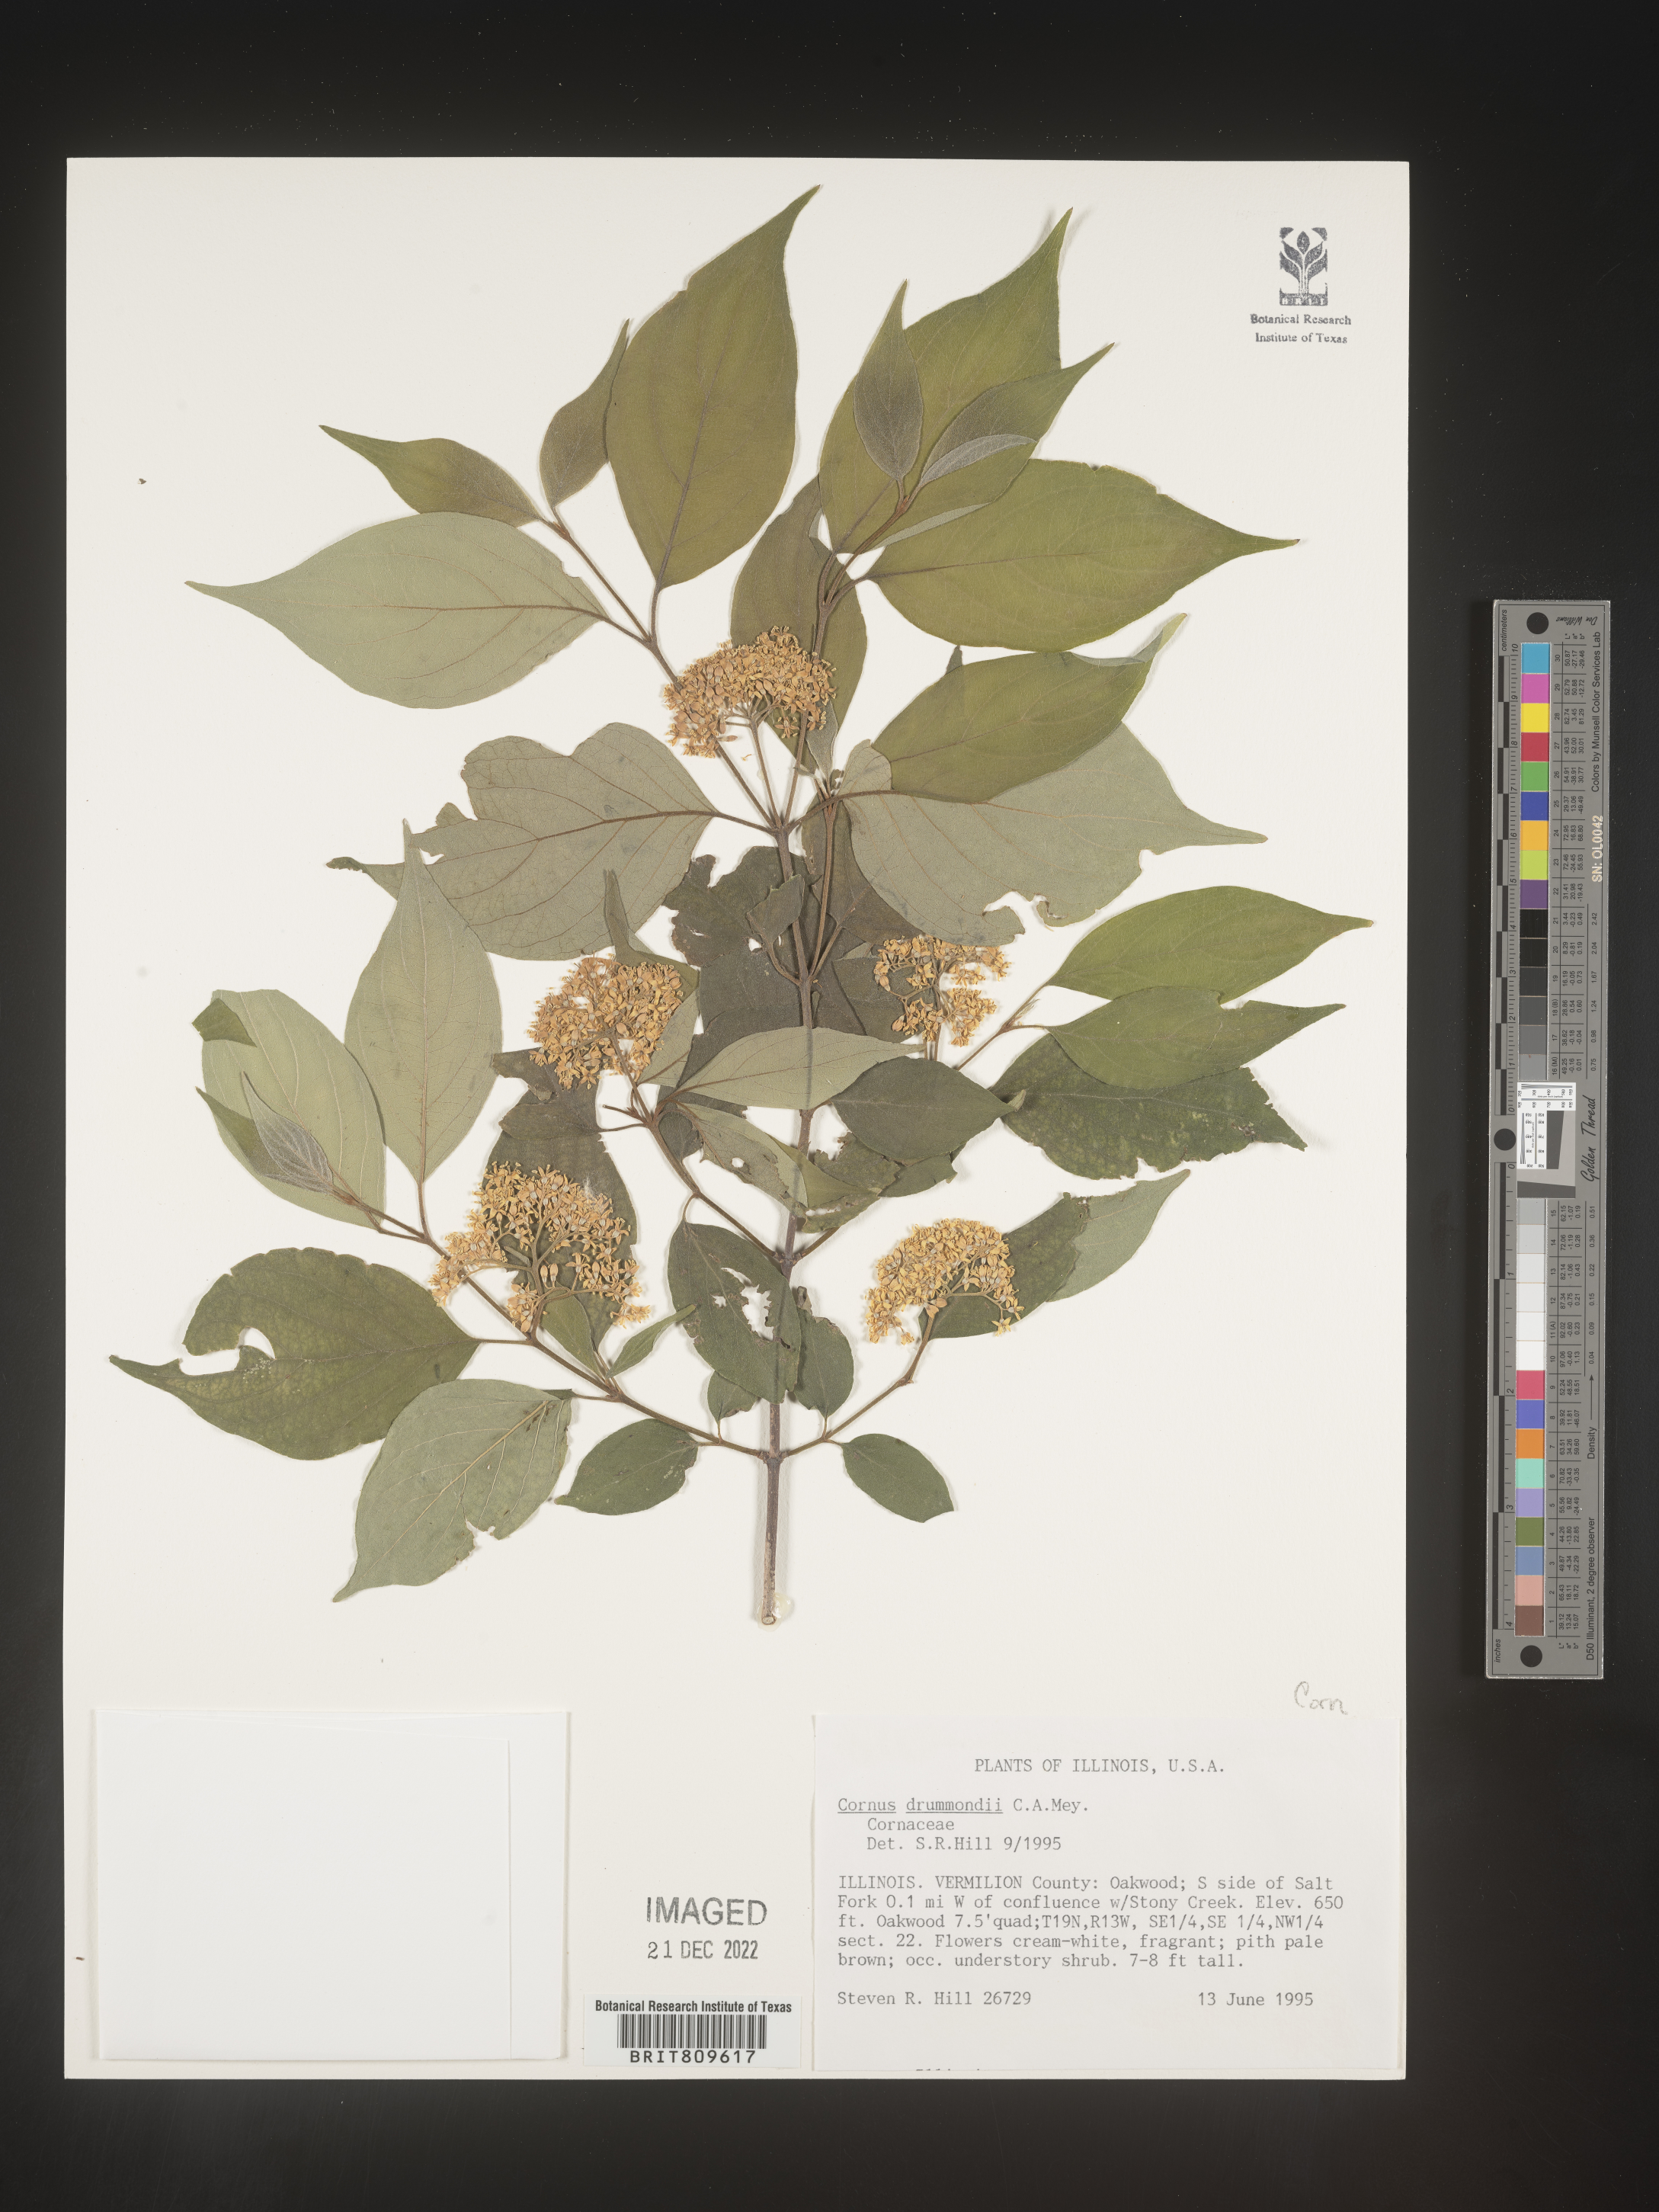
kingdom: Plantae
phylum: Tracheophyta
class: Magnoliopsida
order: Cornales
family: Cornaceae
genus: Cornus
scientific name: Cornus drummondii
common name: Rough-leaf dogwood
